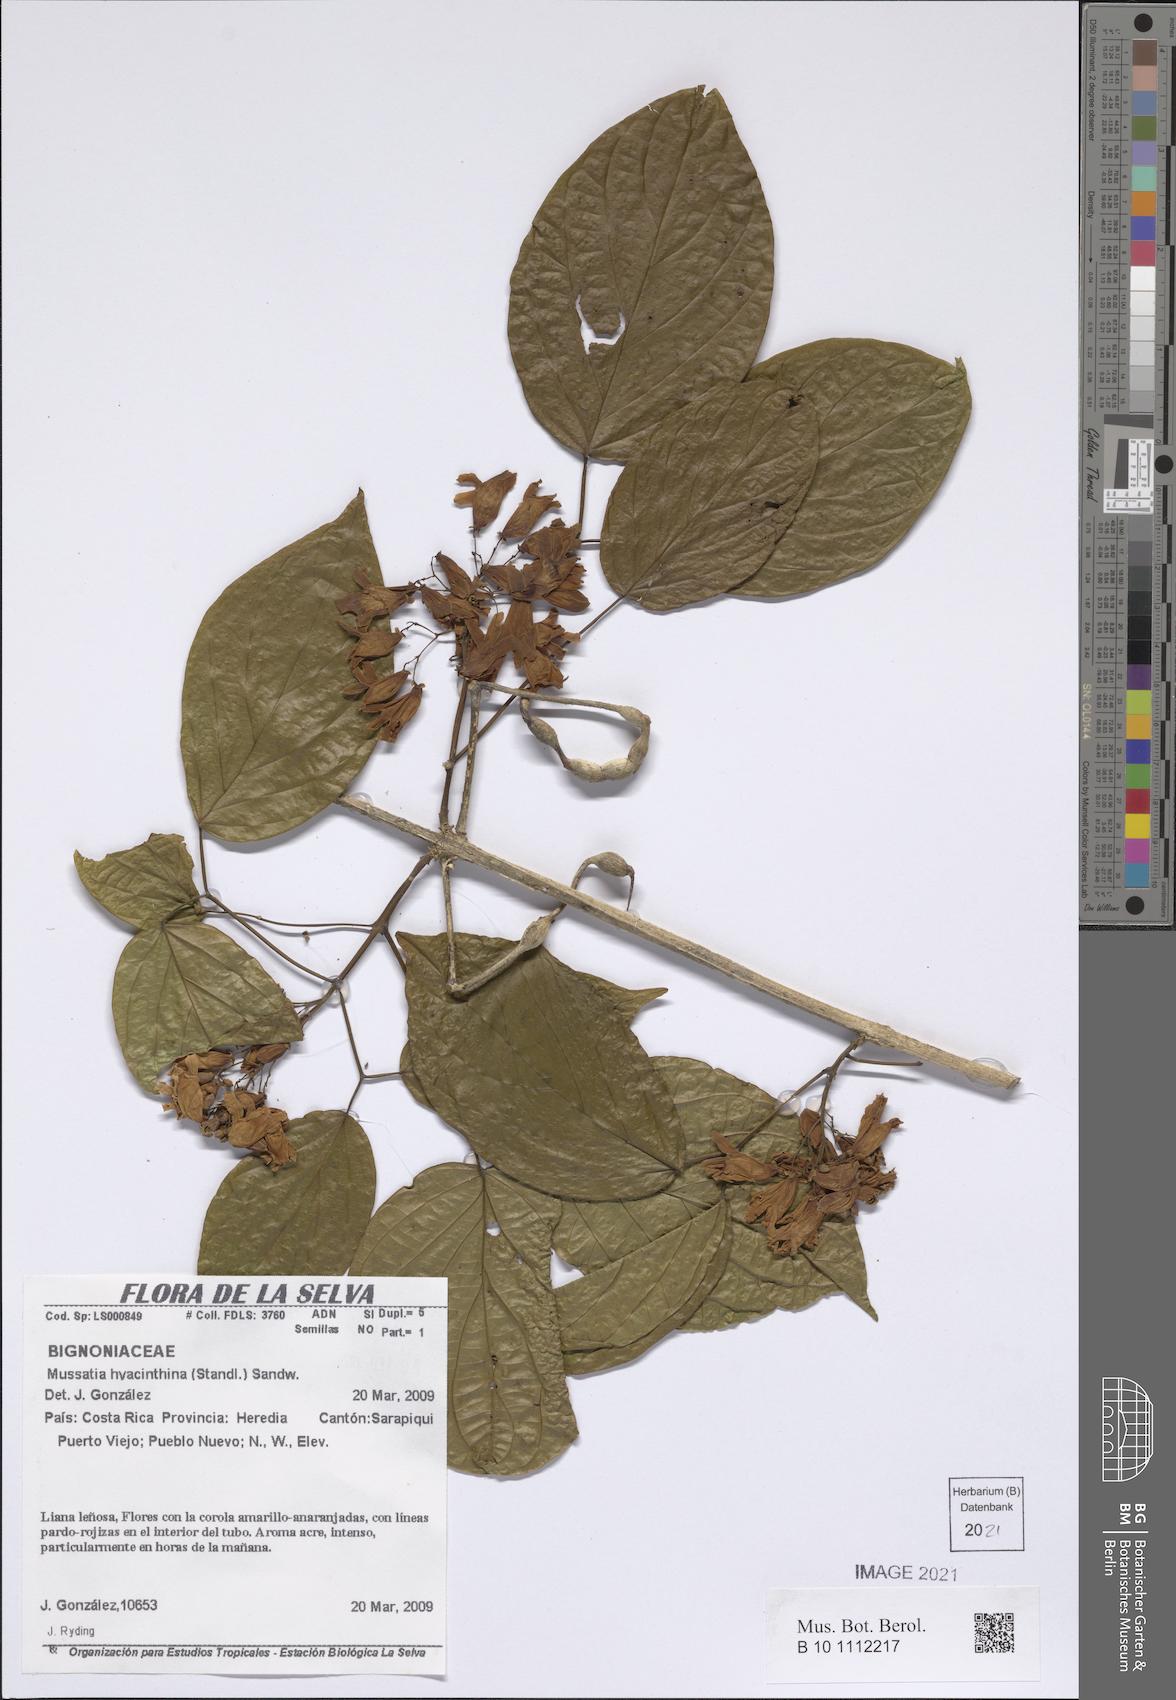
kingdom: Plantae
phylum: Tracheophyta
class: Magnoliopsida
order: Lamiales
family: Bignoniaceae
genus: Bignonia
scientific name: Bignonia hyacinthina
